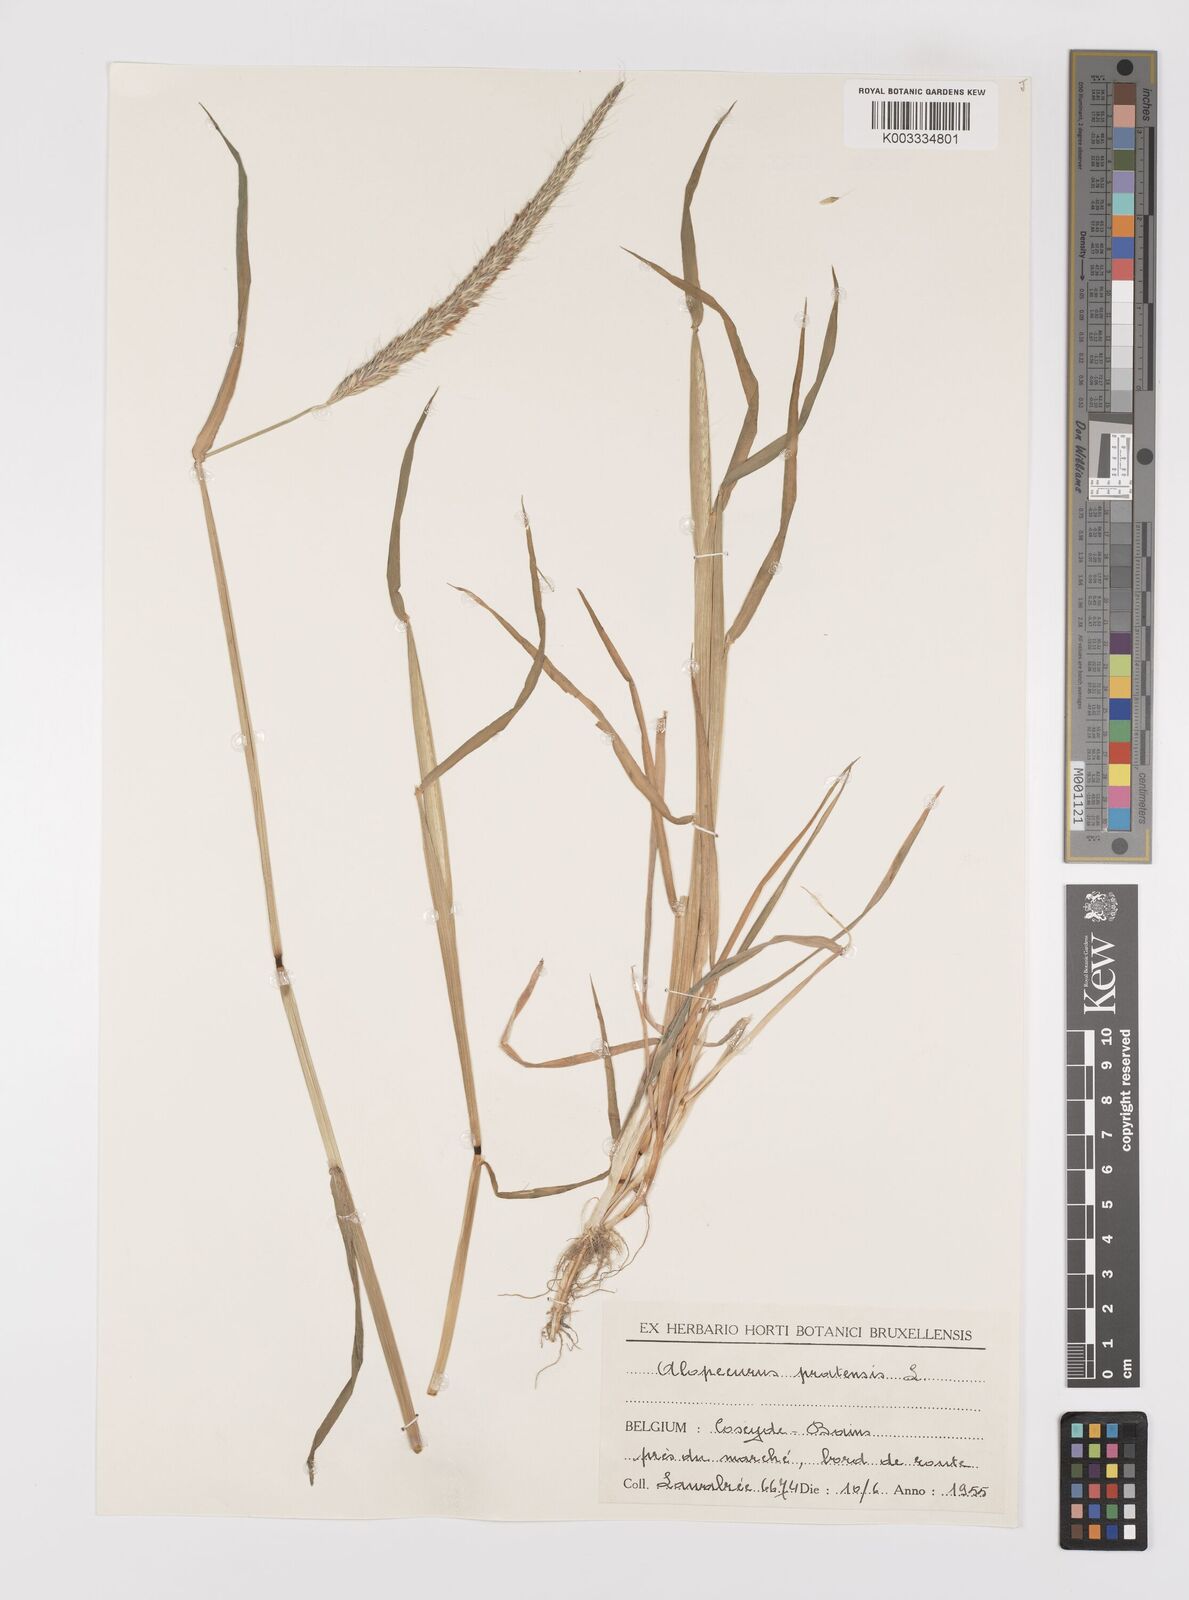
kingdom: Plantae
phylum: Tracheophyta
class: Liliopsida
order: Poales
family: Poaceae
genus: Alopecurus
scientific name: Alopecurus myosuroides
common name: Black-grass
